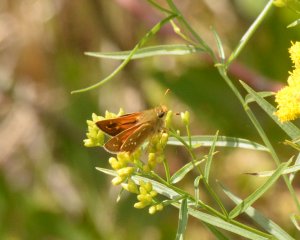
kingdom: Animalia
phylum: Arthropoda
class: Insecta
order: Lepidoptera
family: Hesperiidae
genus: Hesperia
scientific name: Hesperia comma
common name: Common Branded Skipper
